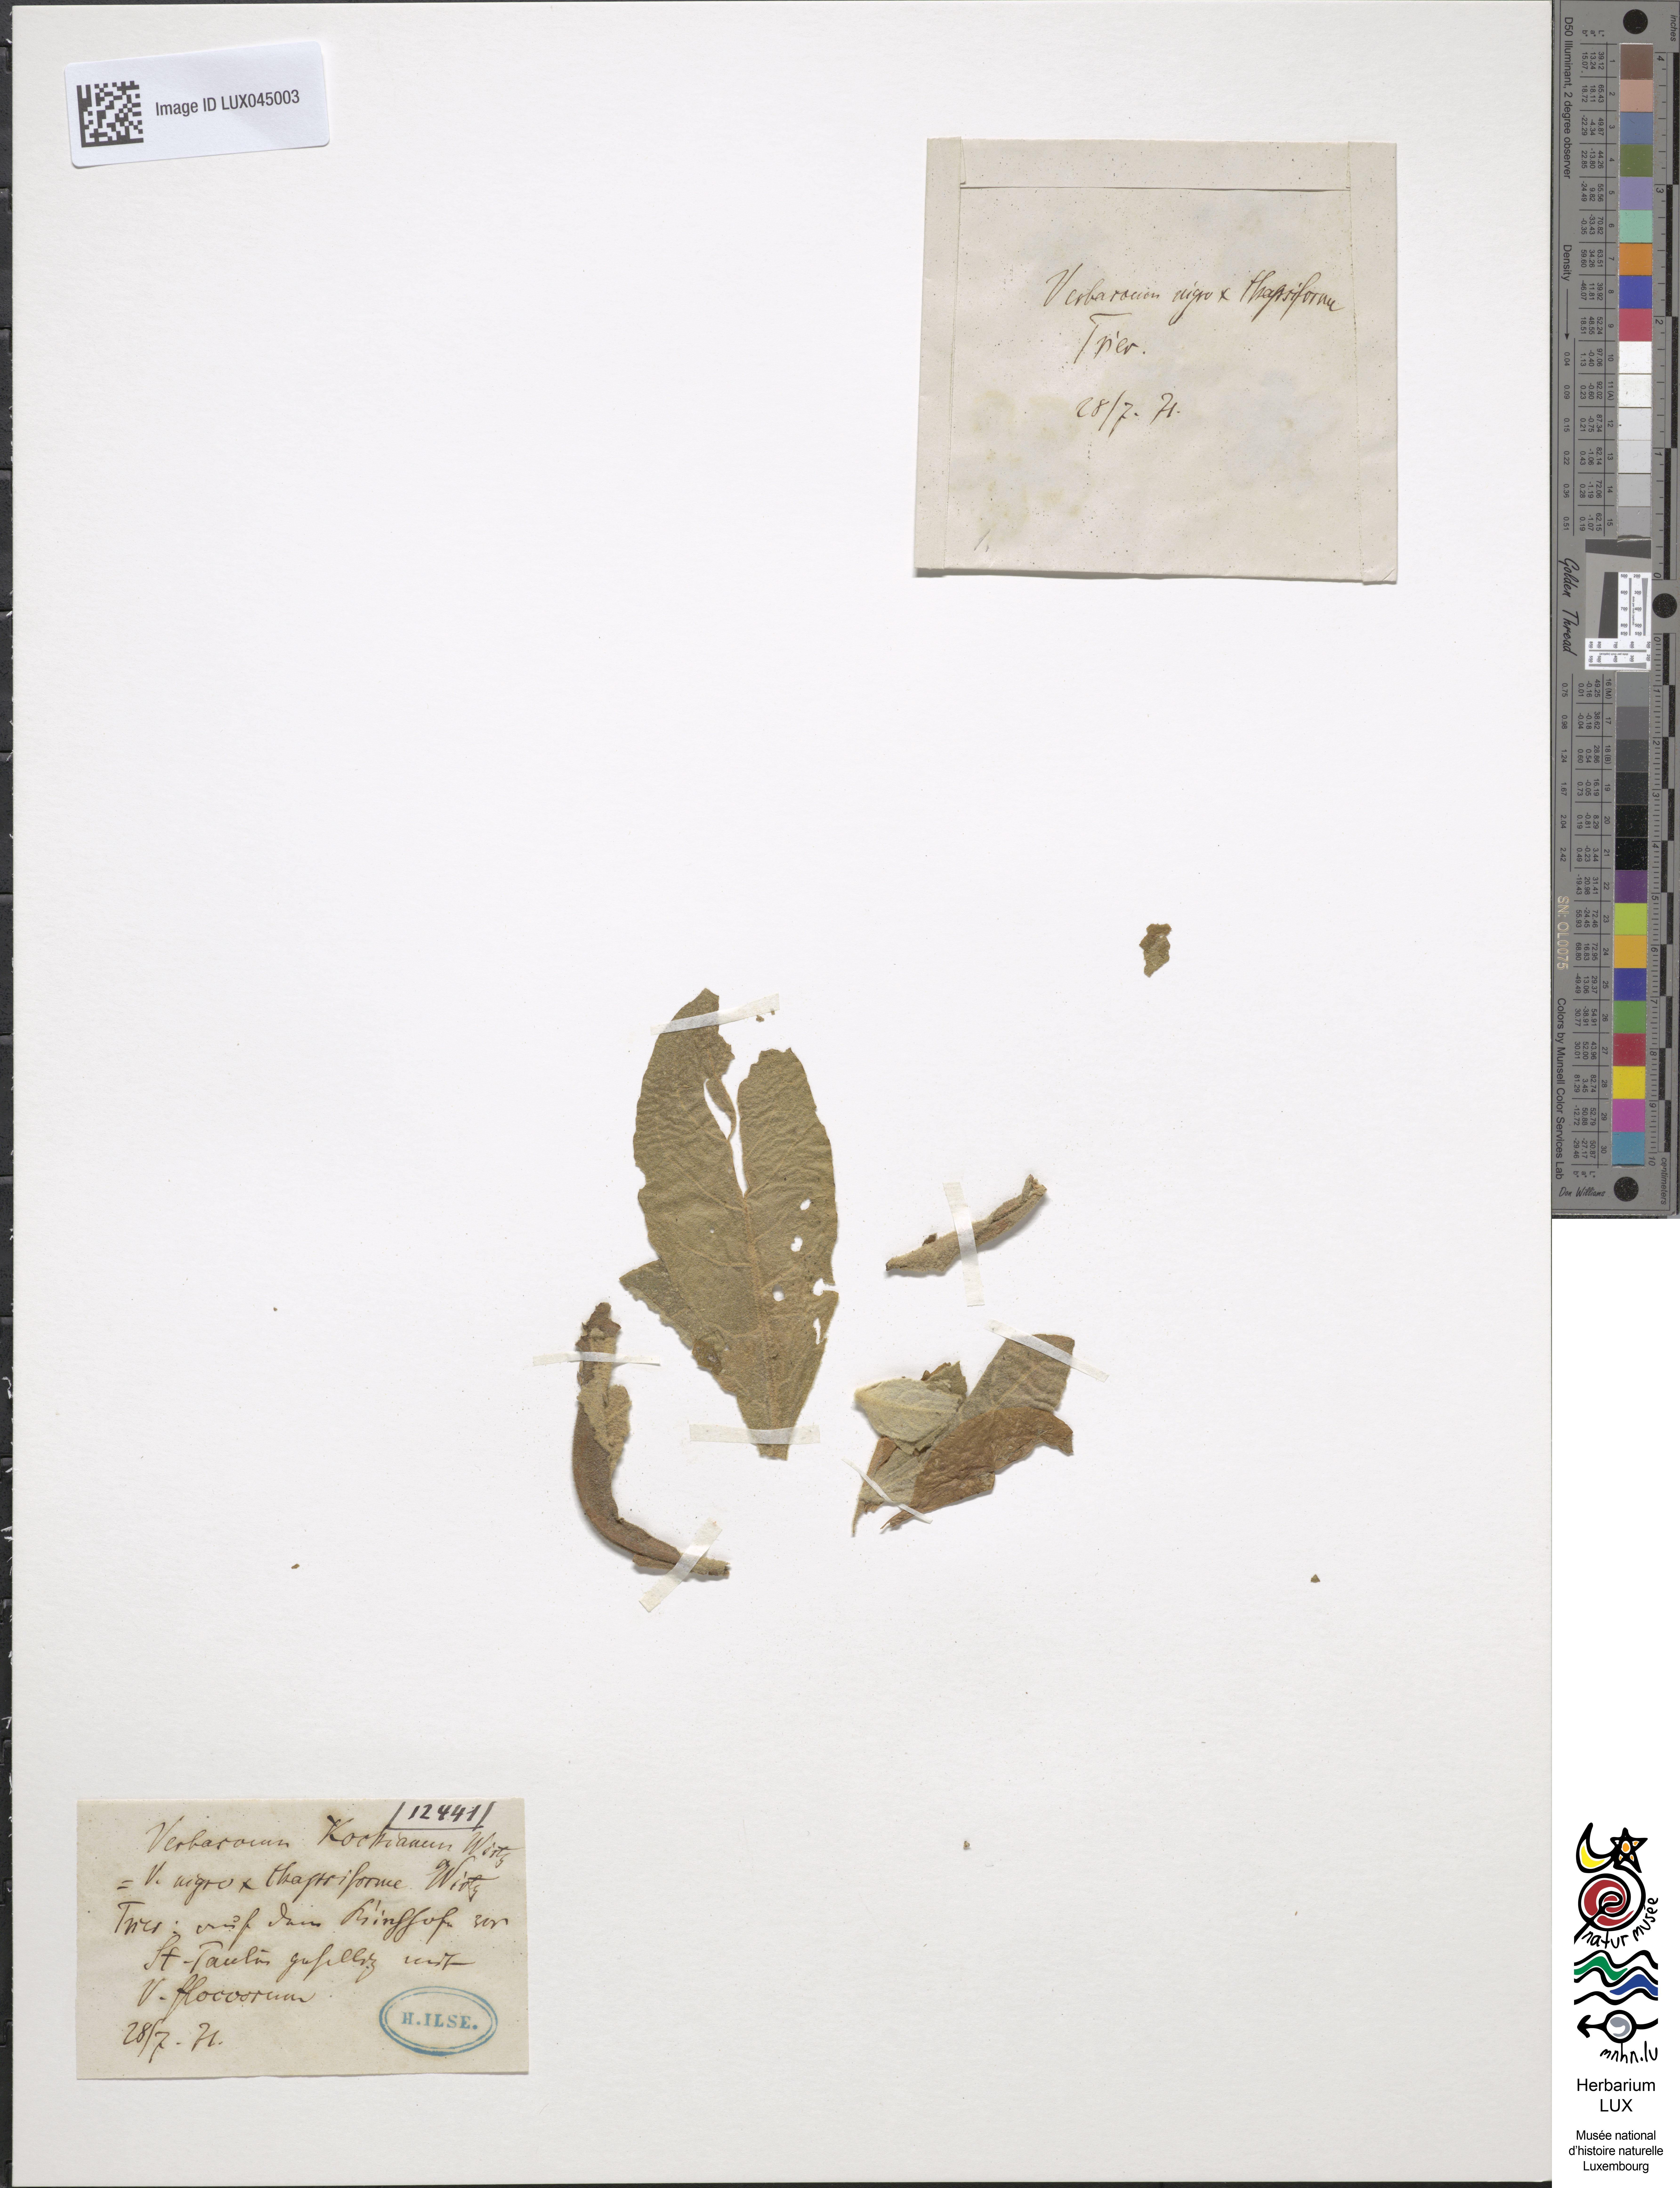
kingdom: Plantae
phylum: Tracheophyta
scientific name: Tracheophyta
